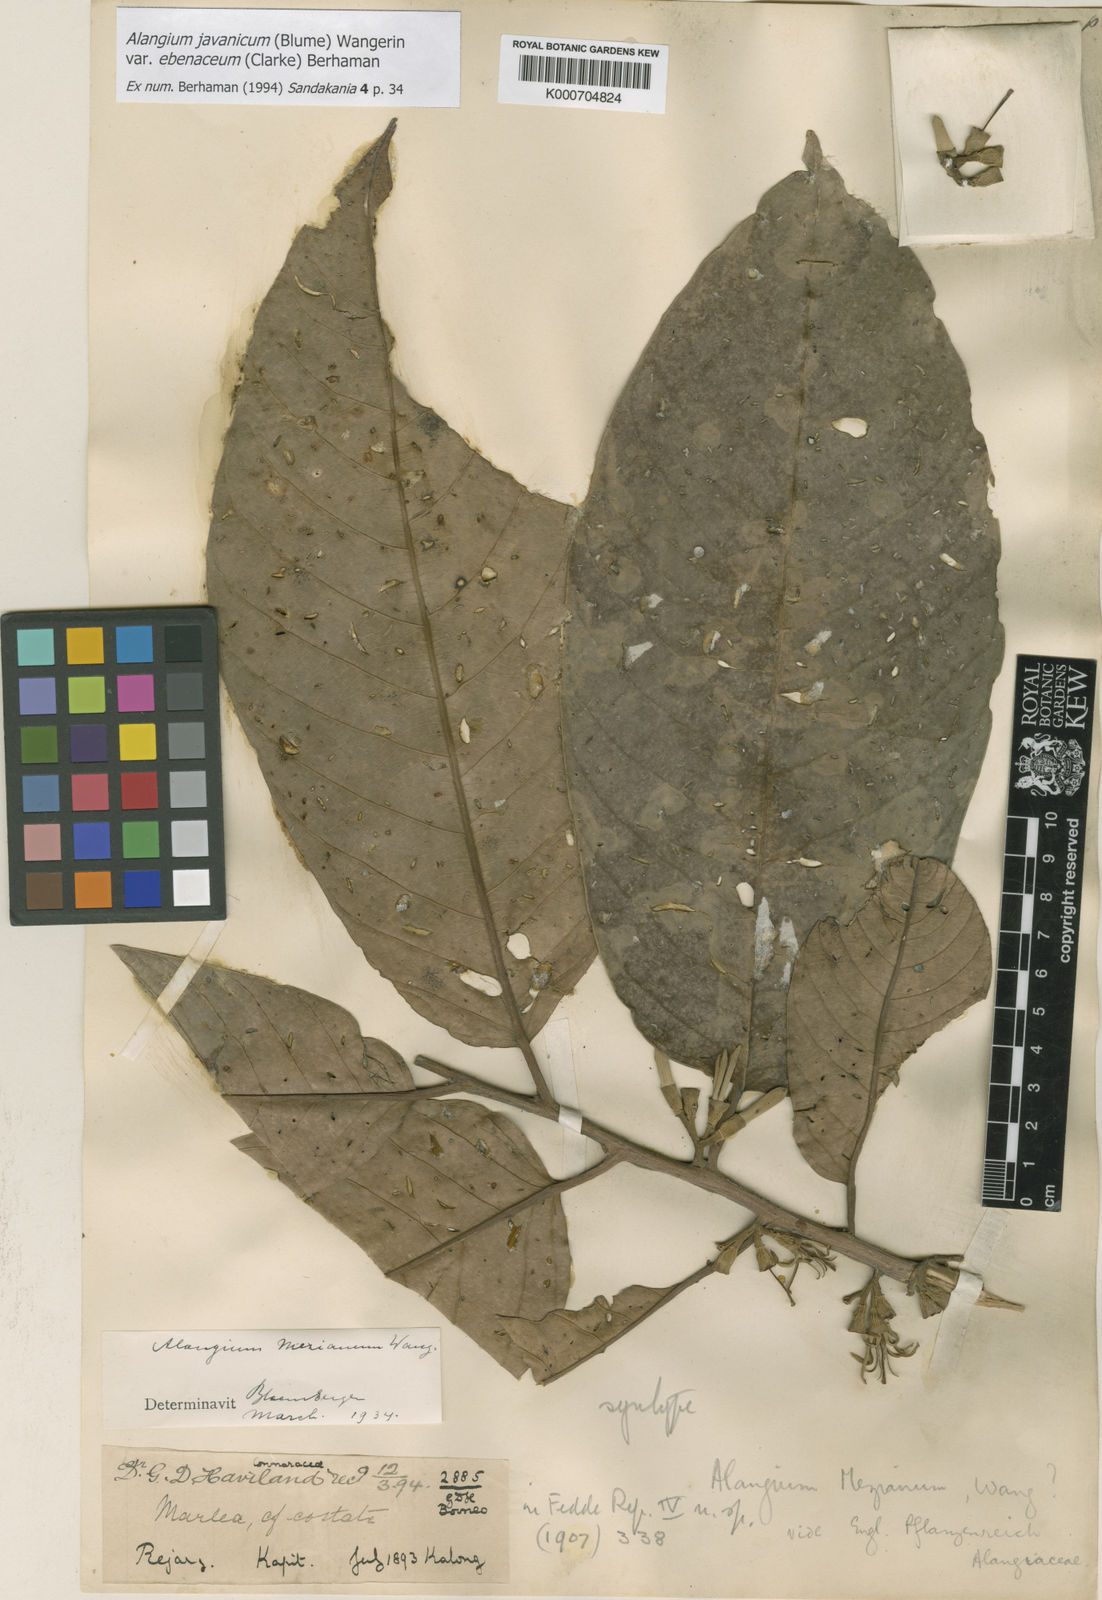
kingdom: Plantae
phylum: Tracheophyta
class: Magnoliopsida
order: Cornales
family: Cornaceae
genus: Alangium
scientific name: Alangium mezianum
